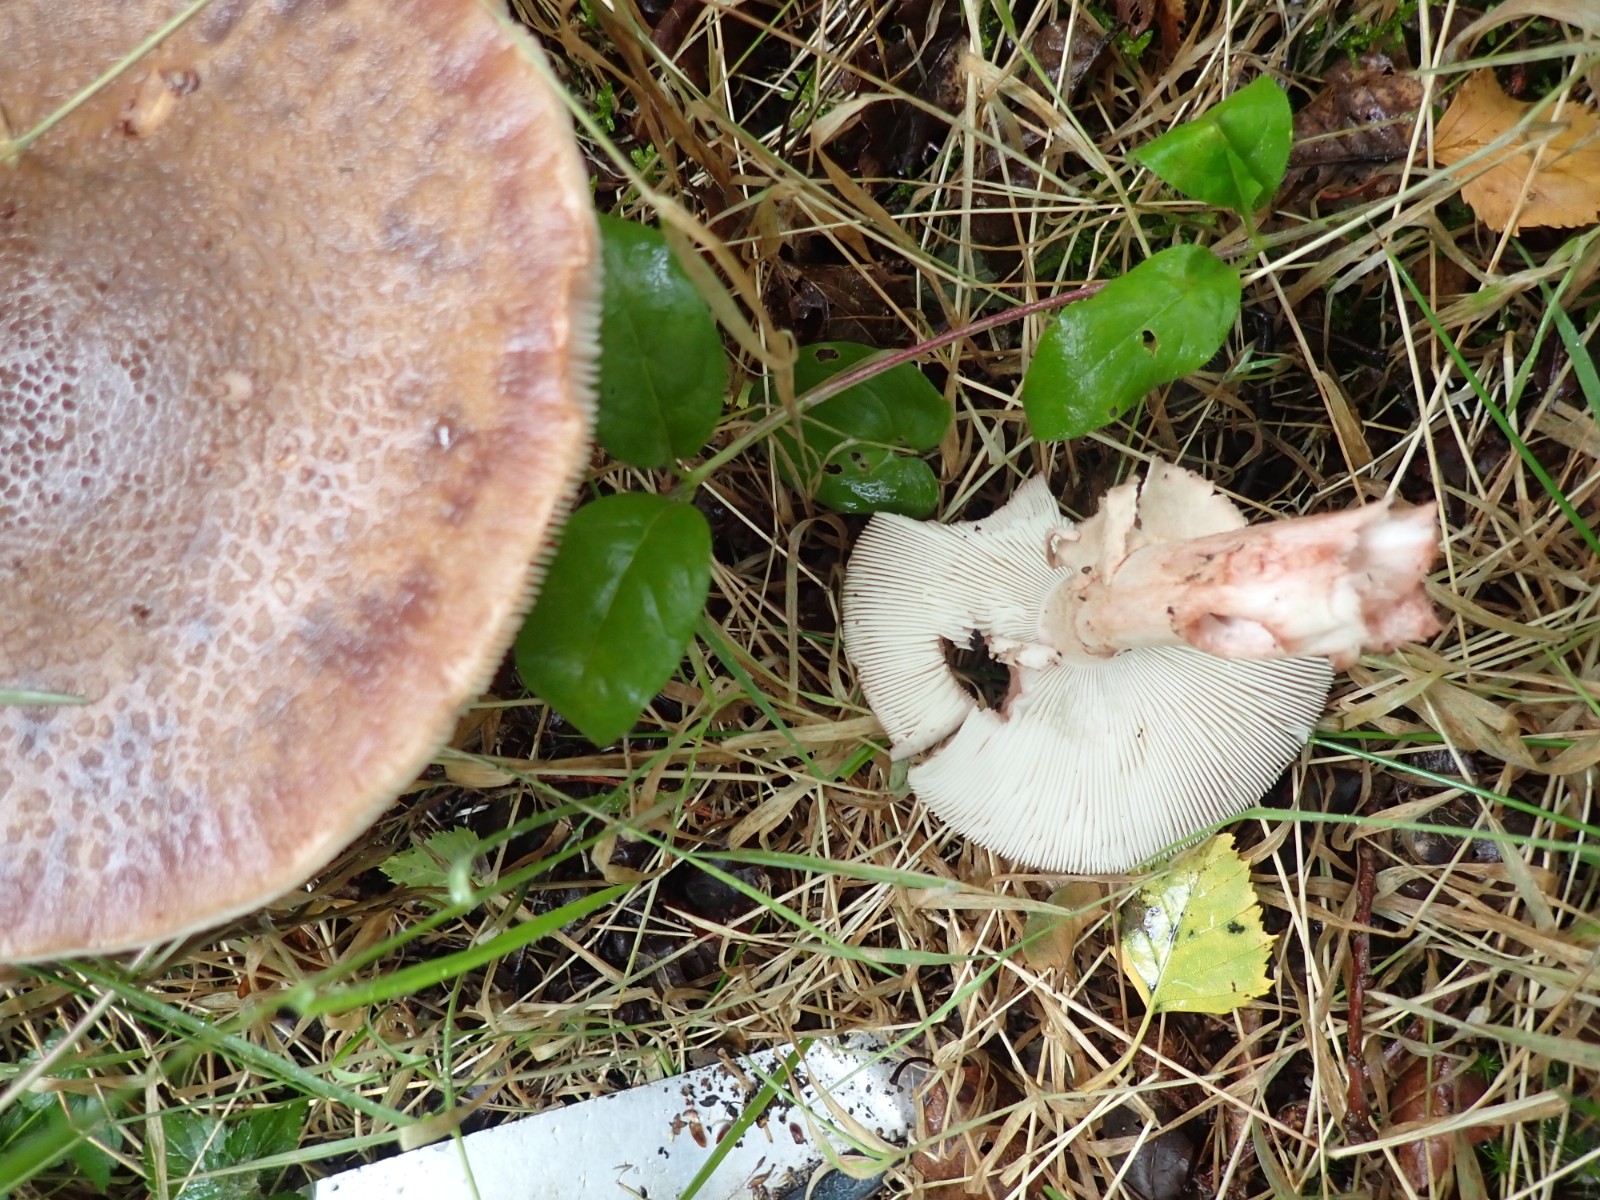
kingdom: Fungi
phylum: Basidiomycota
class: Agaricomycetes
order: Agaricales
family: Amanitaceae
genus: Amanita
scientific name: Amanita rubescens
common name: rødmende fluesvamp
